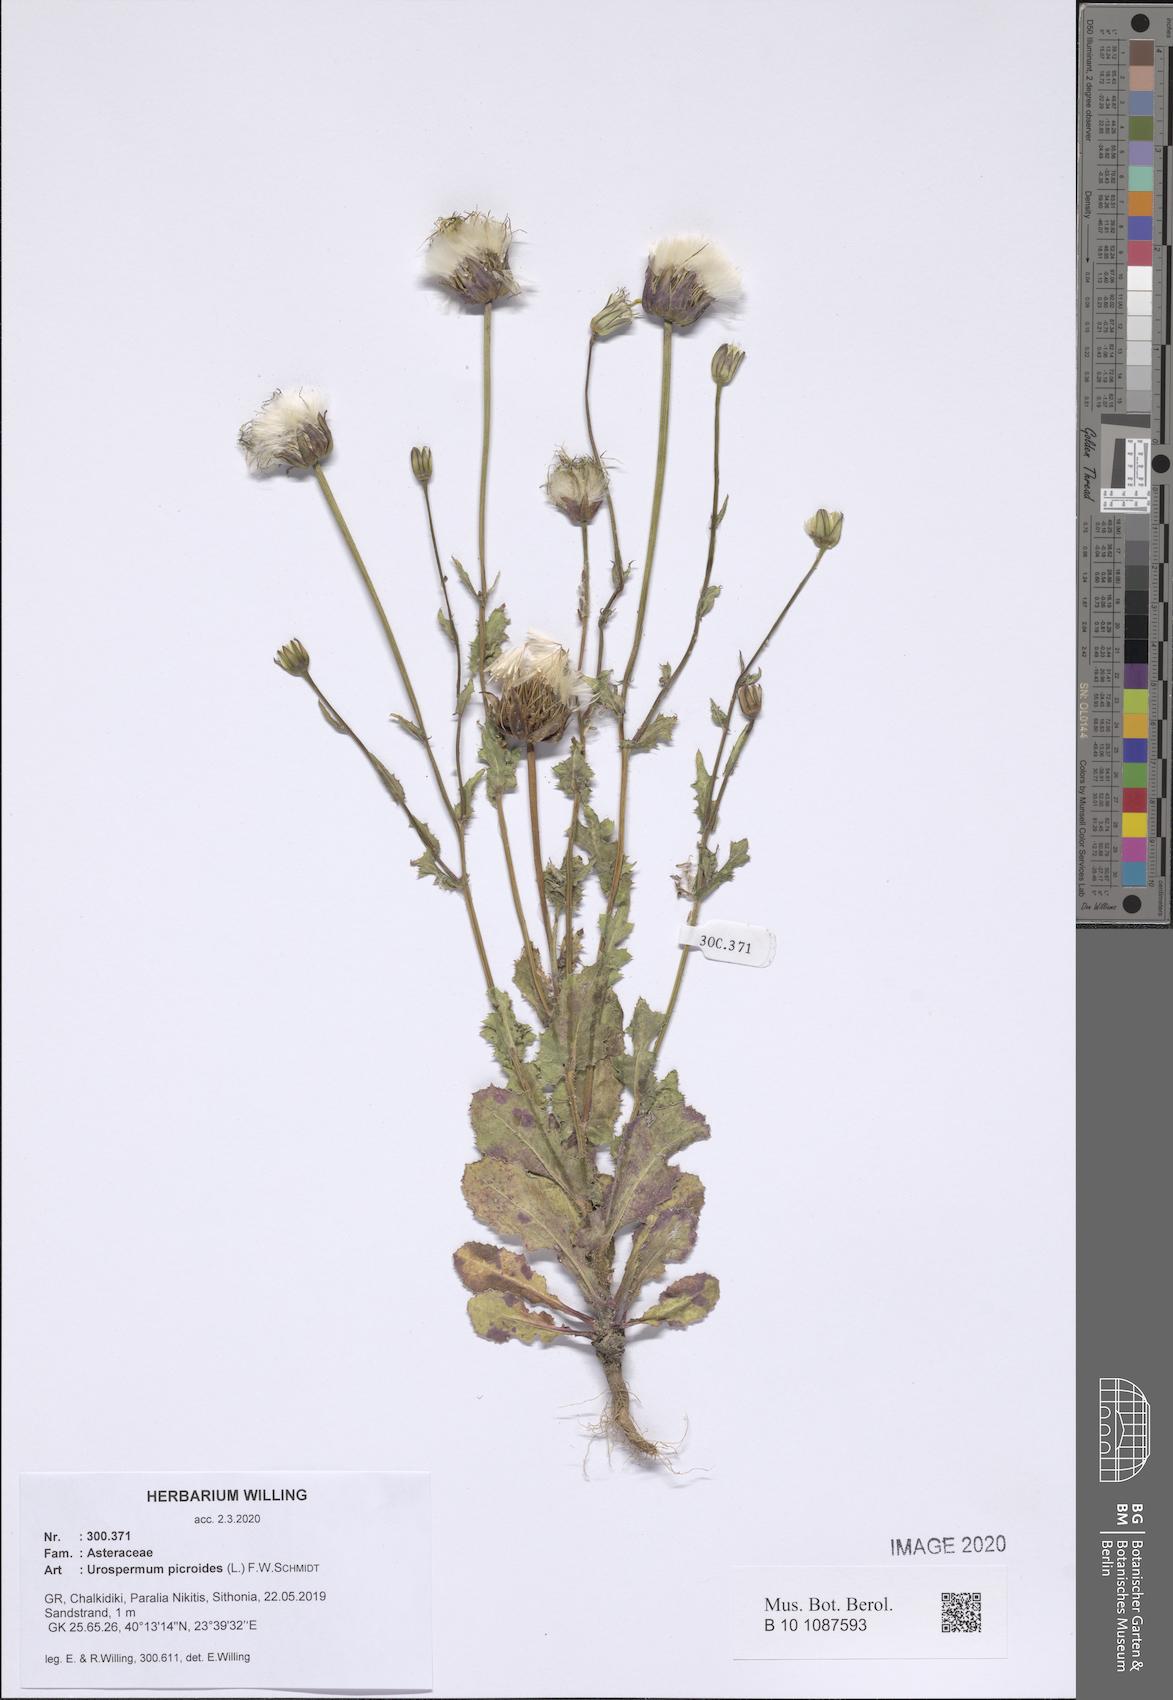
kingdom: Plantae
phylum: Tracheophyta
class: Magnoliopsida
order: Asterales
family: Asteraceae
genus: Urospermum
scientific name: Urospermum picroides
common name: False hawkbit
